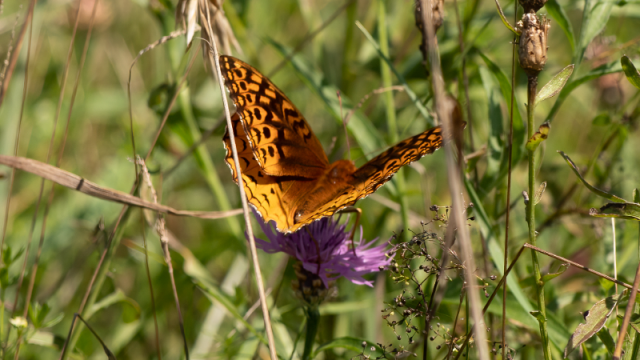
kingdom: Animalia
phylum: Arthropoda
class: Insecta
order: Lepidoptera
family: Nymphalidae
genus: Speyeria
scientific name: Speyeria cybele
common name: Great Spangled Fritillary
